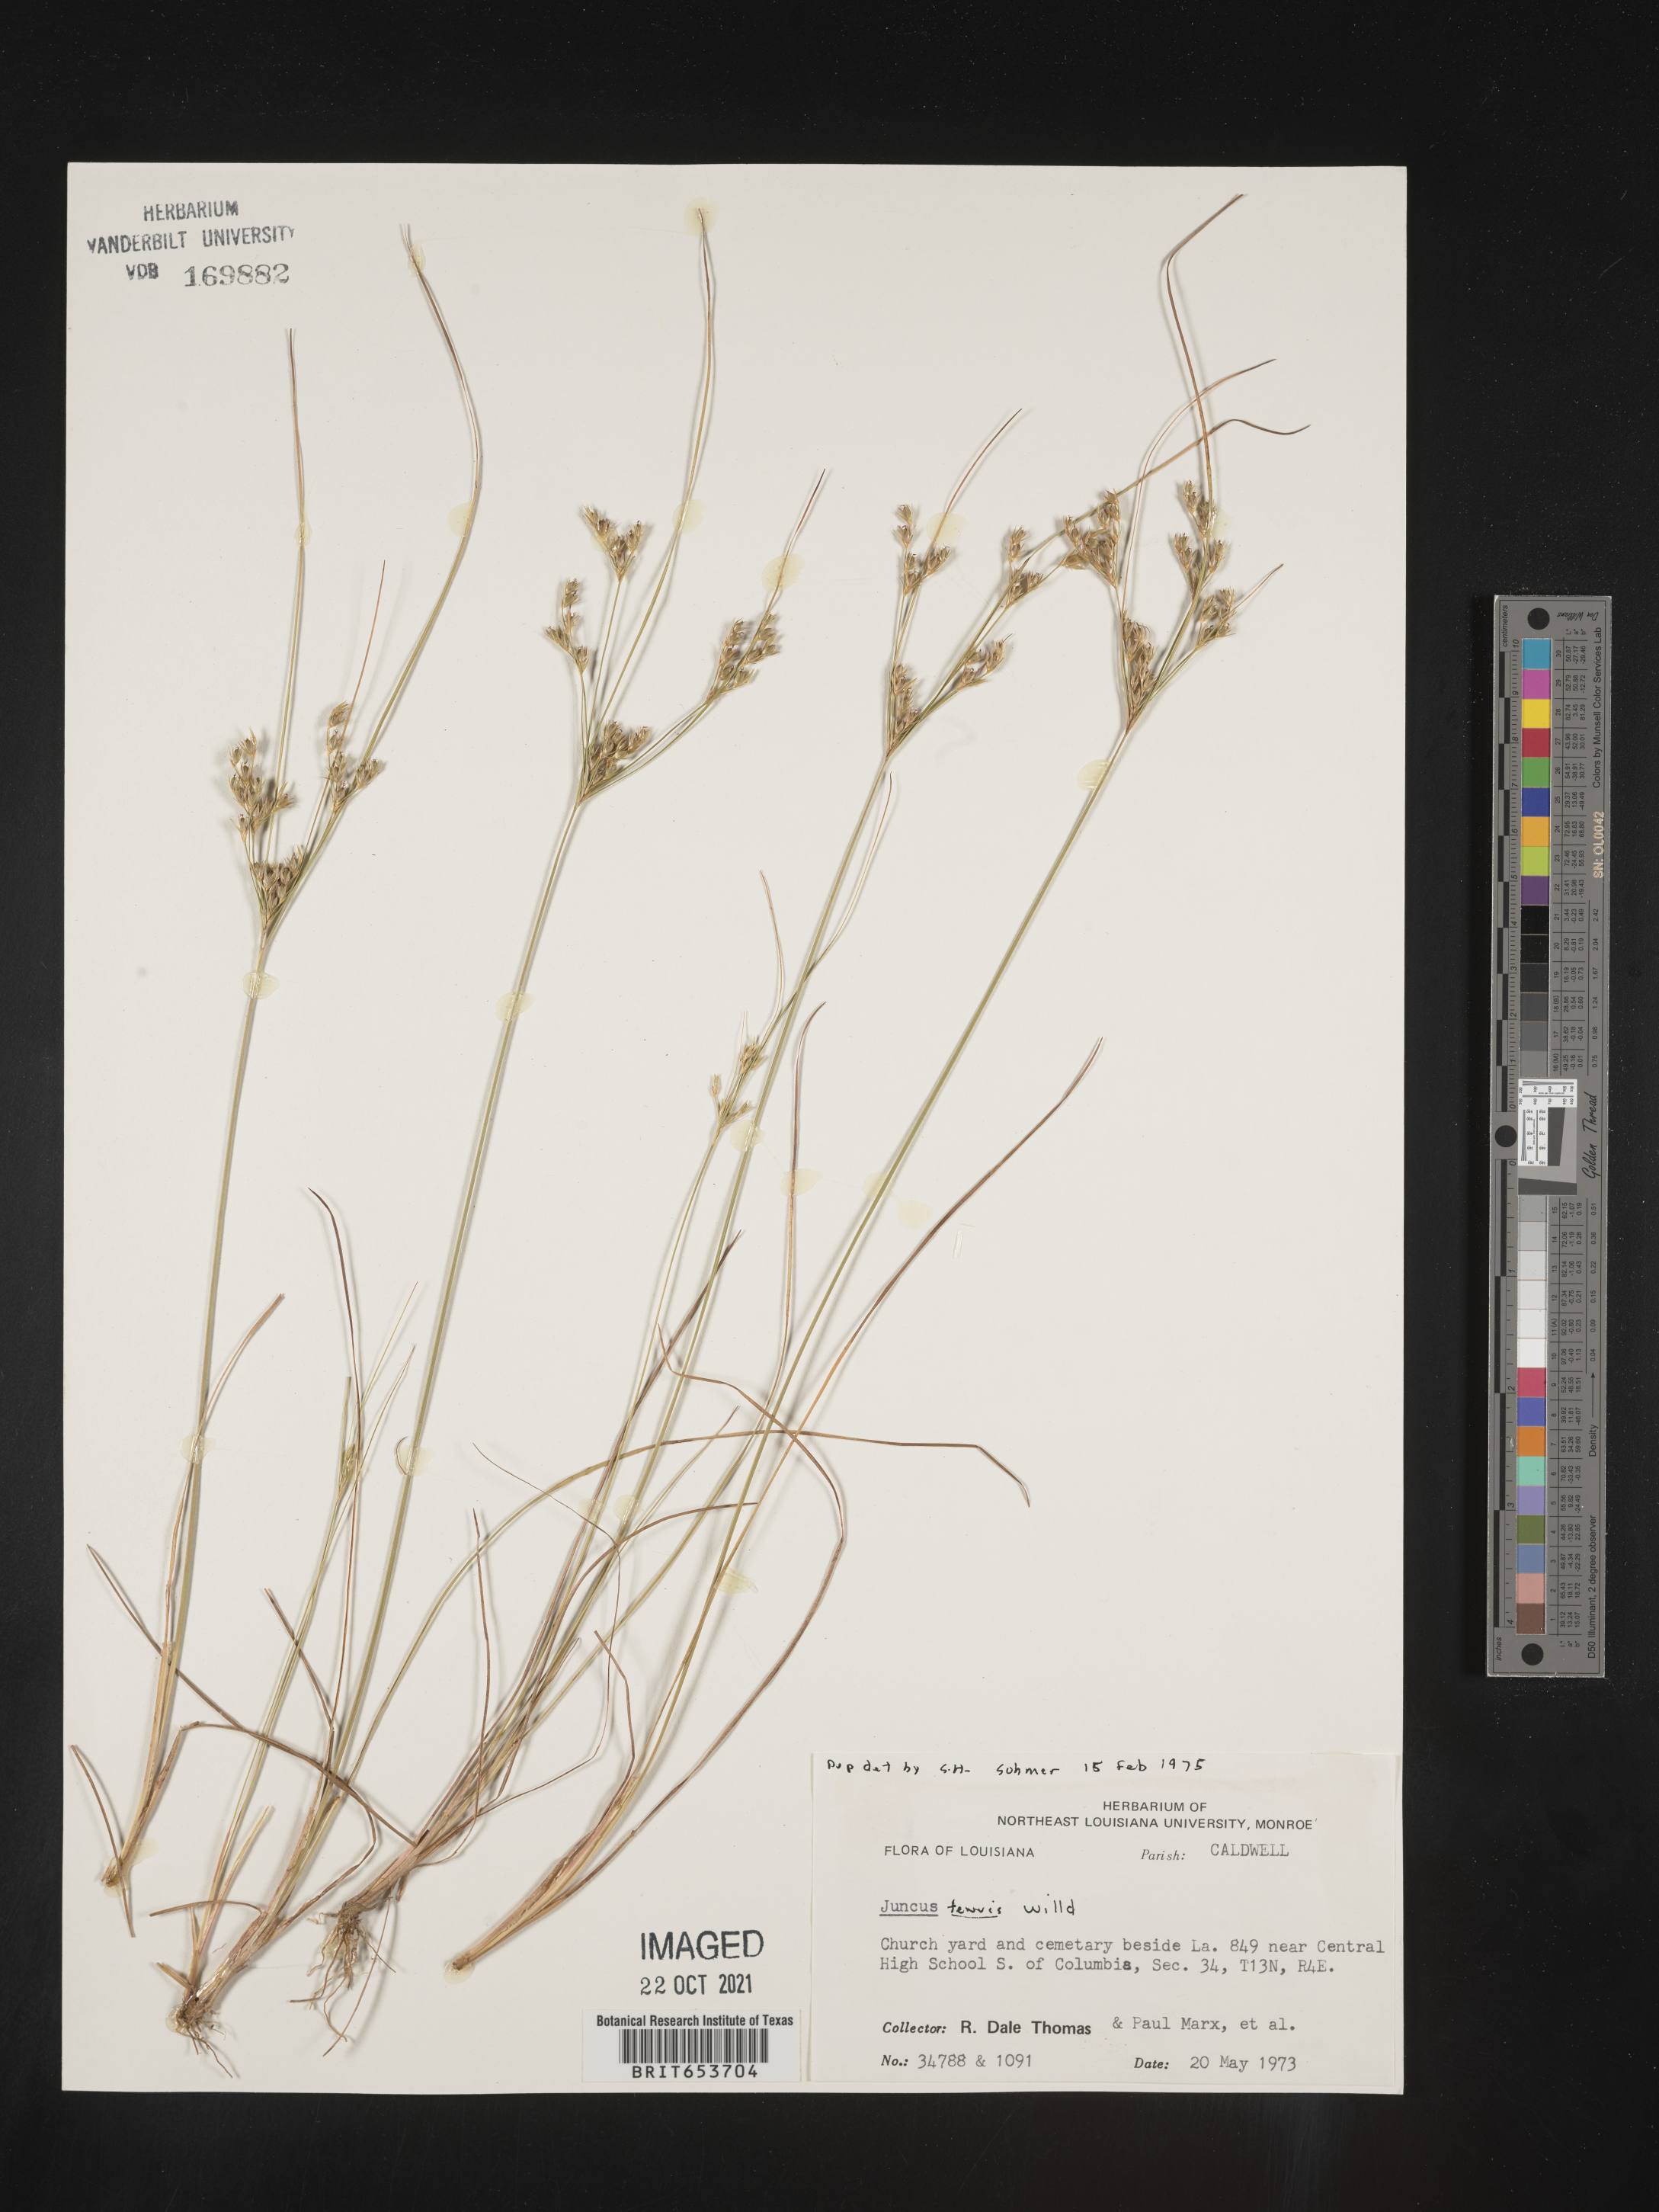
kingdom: Plantae
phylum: Tracheophyta
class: Liliopsida
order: Poales
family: Juncaceae
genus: Juncus
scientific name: Juncus tenuis
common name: Slender rush
